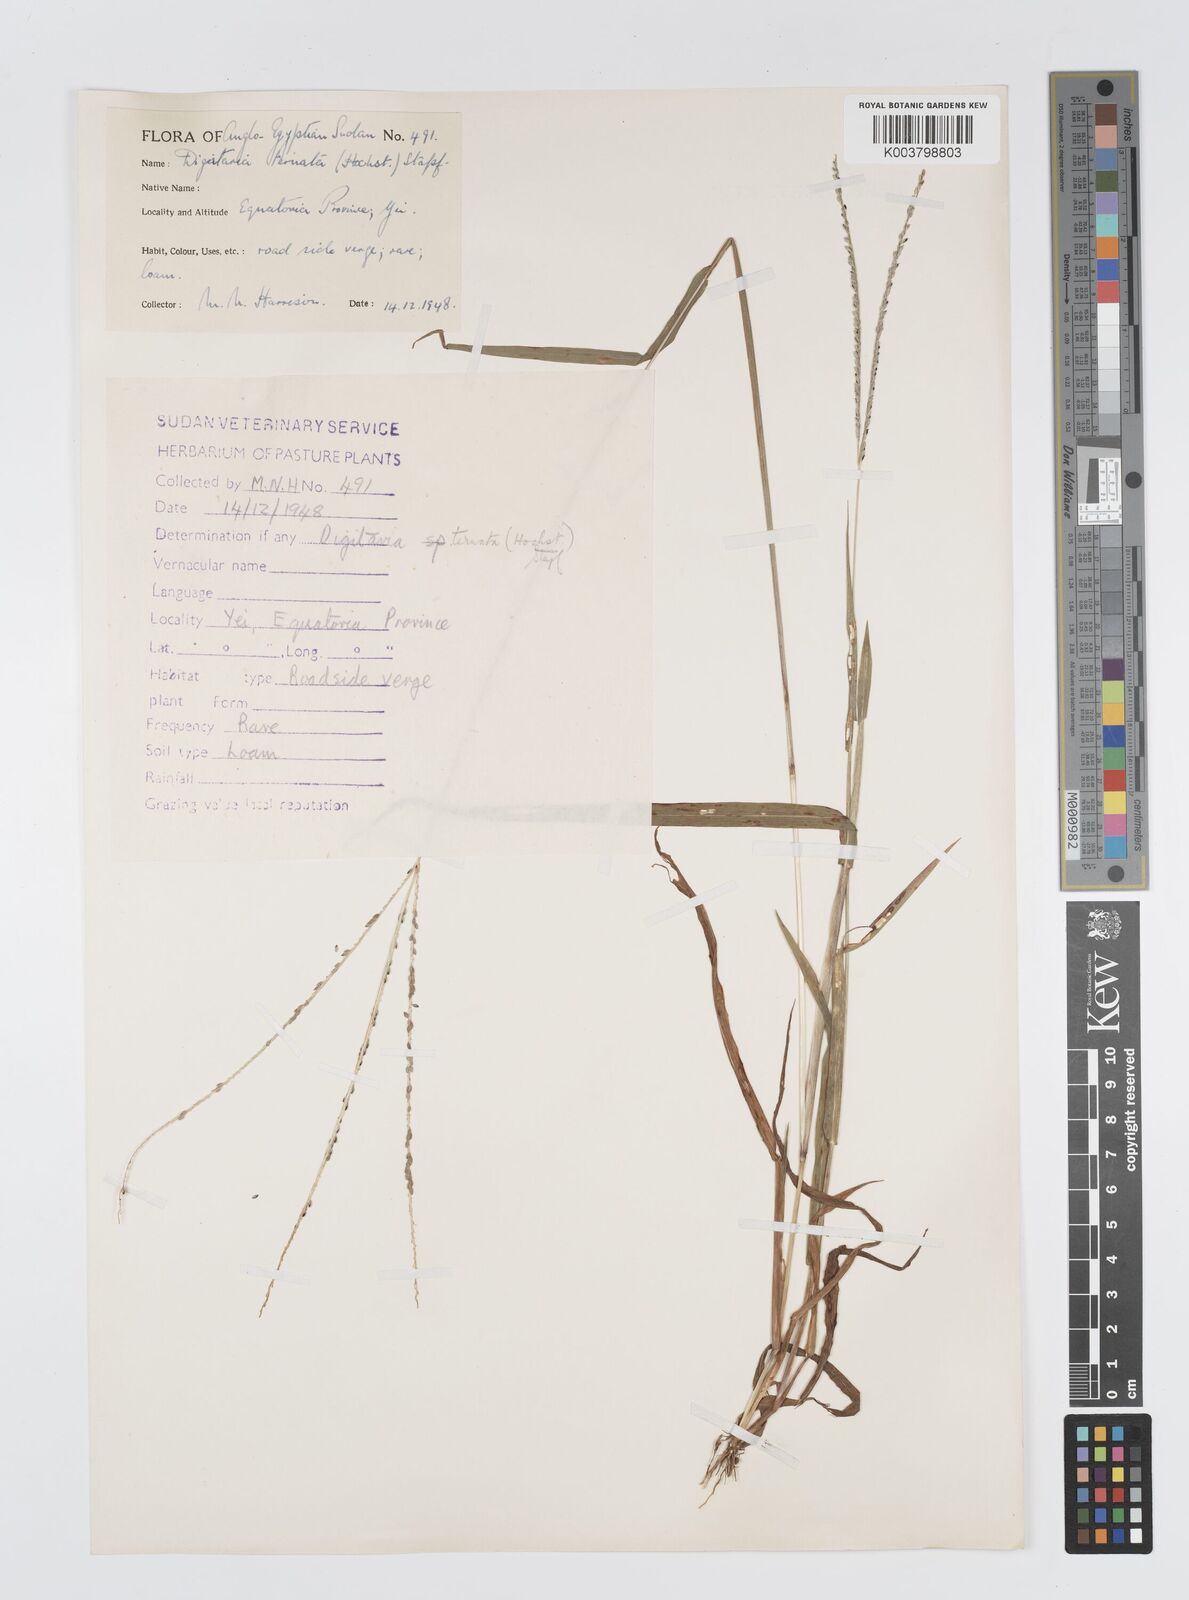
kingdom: Plantae
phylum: Tracheophyta
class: Liliopsida
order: Poales
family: Poaceae
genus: Digitaria
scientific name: Digitaria ternata
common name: Blackseed crabgrass
